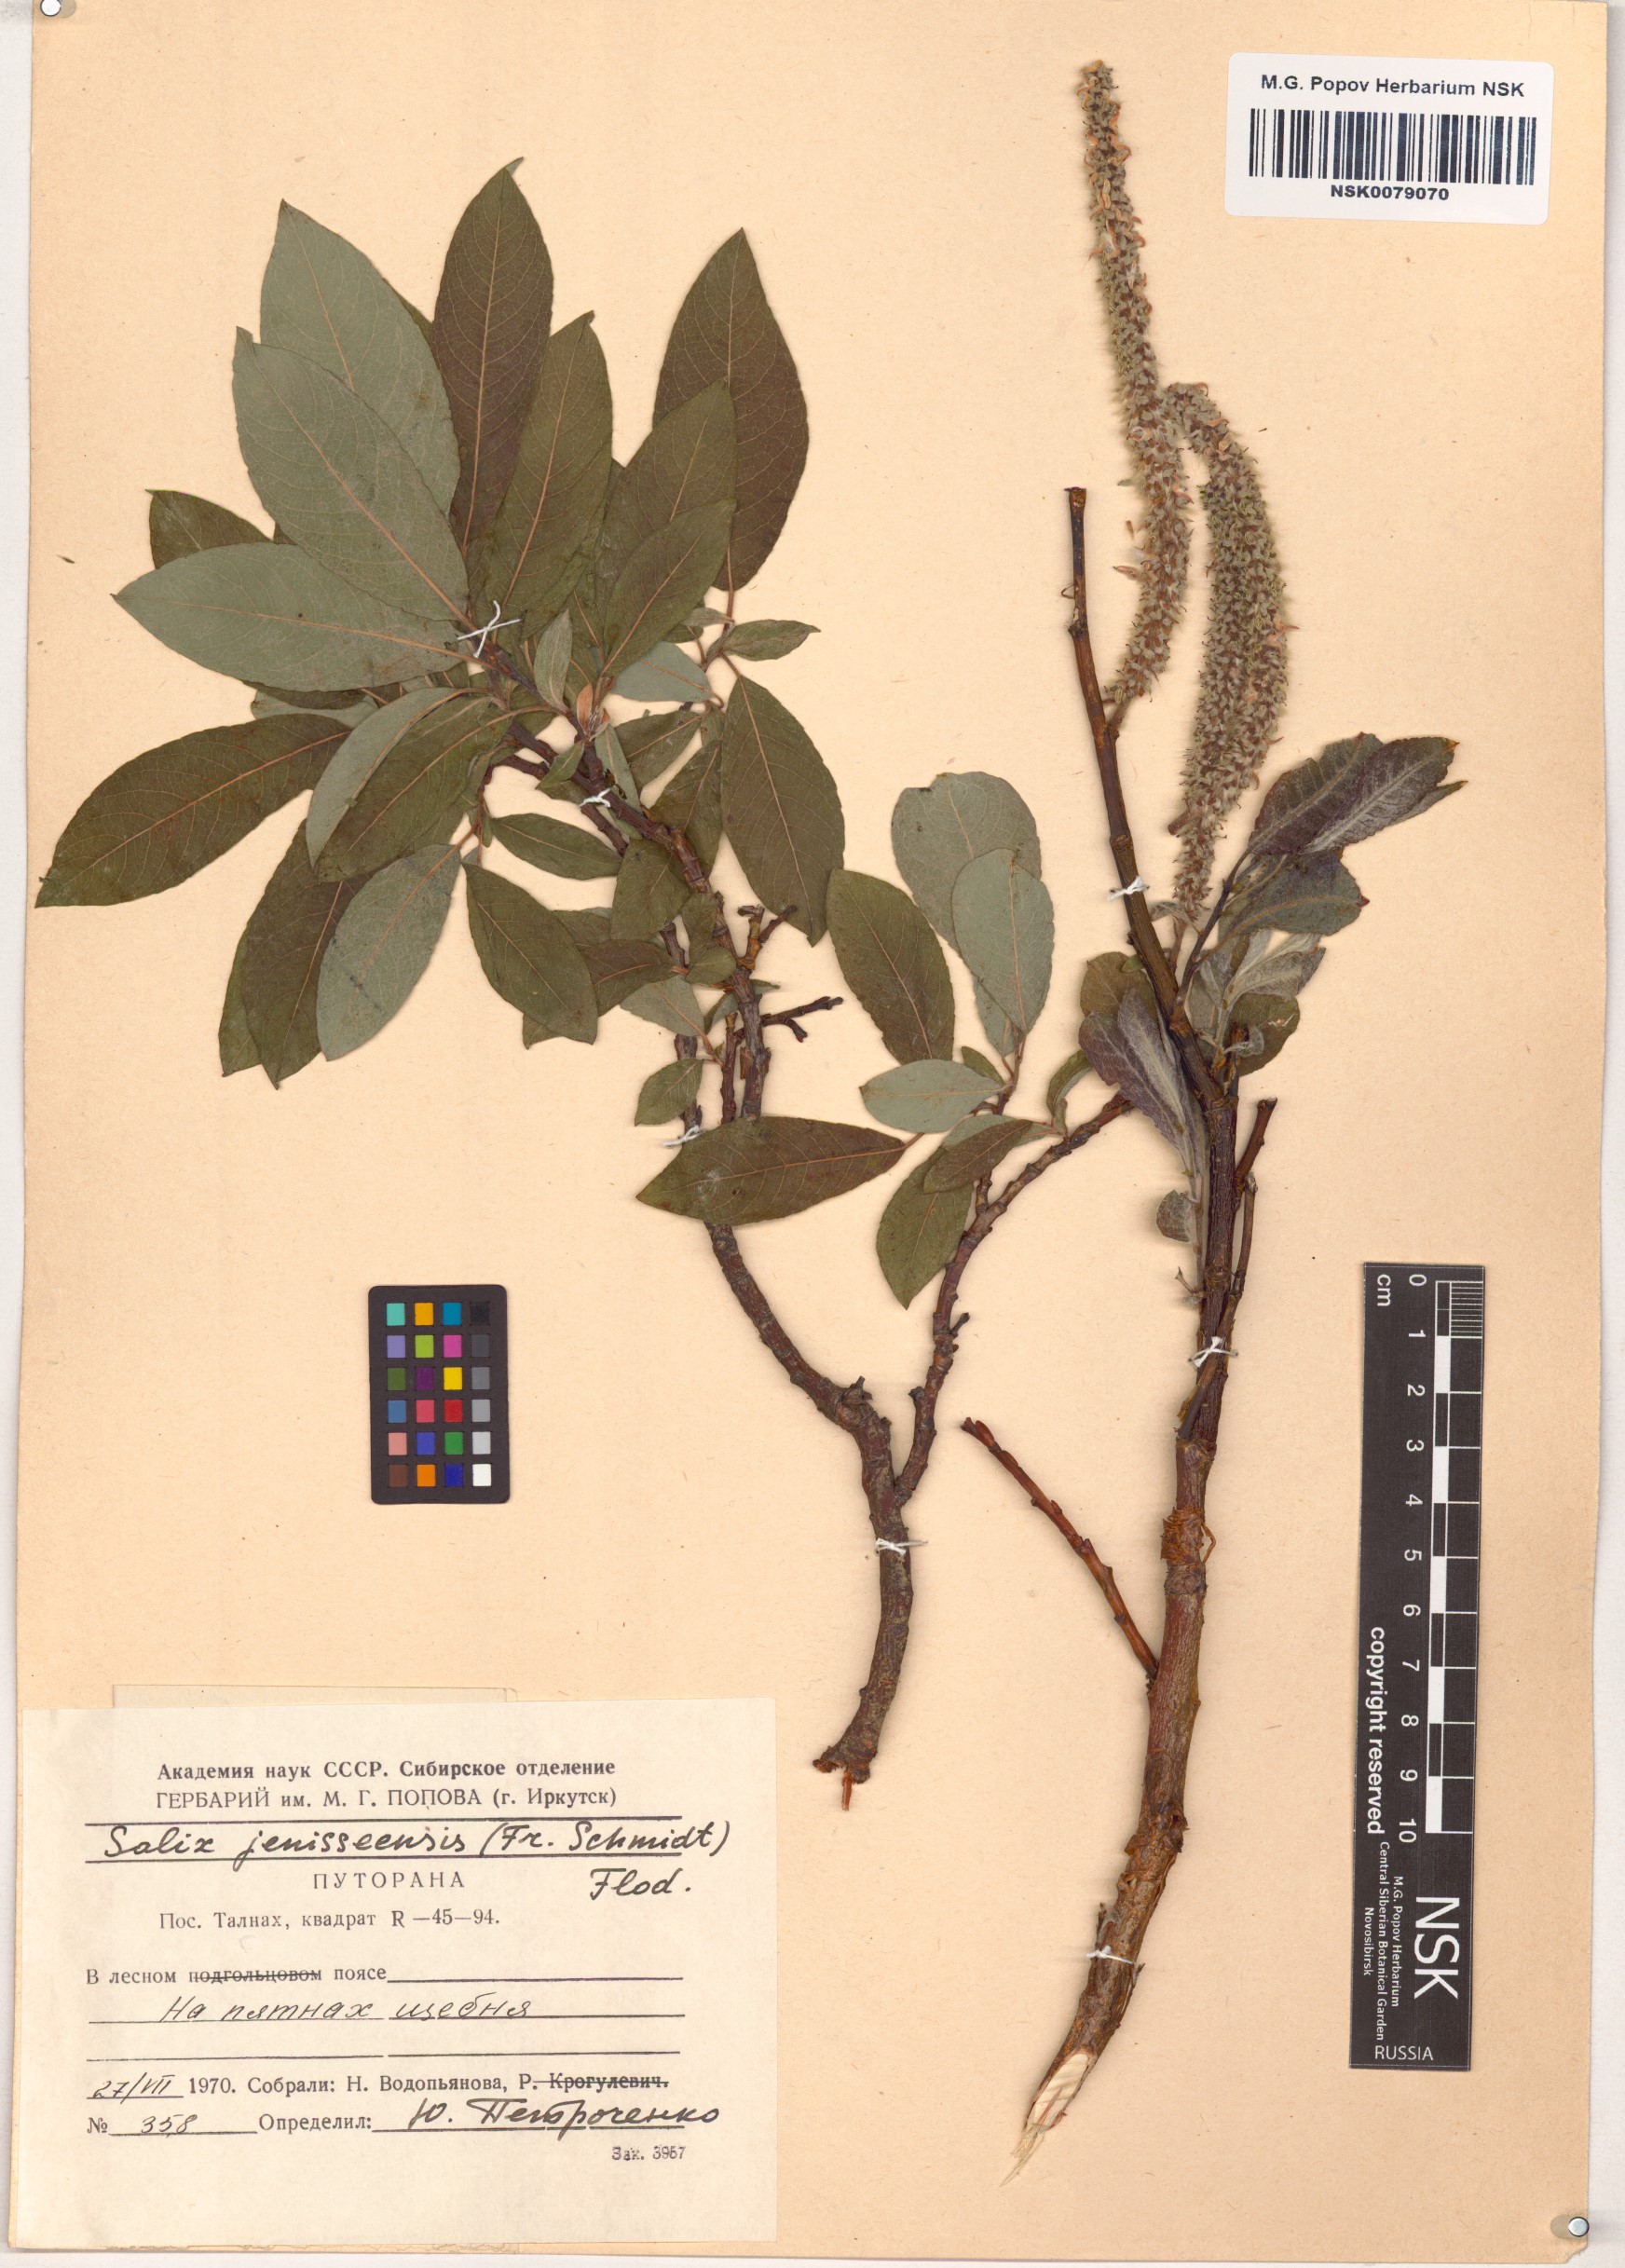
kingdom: Plantae
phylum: Tracheophyta
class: Magnoliopsida
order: Malpighiales
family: Salicaceae
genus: Salix
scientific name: Salix jenisseensis
